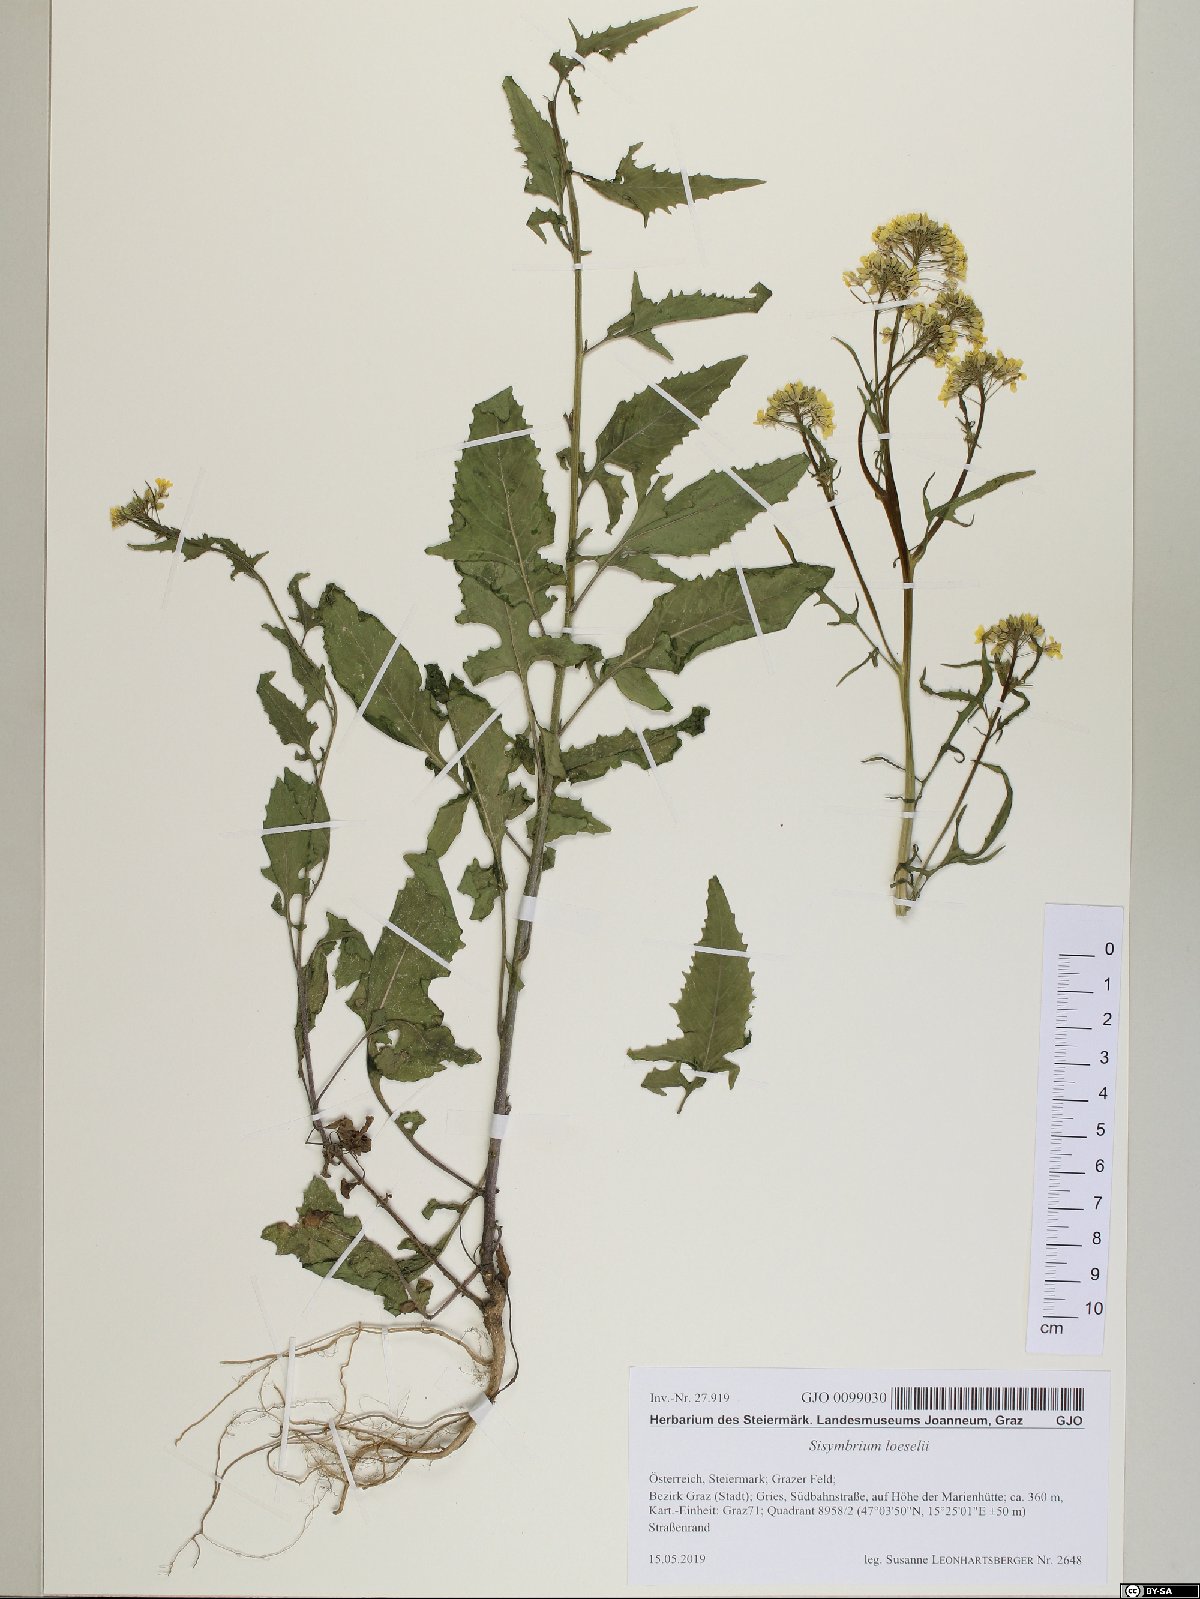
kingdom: Plantae
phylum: Tracheophyta
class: Magnoliopsida
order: Brassicales
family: Brassicaceae
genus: Sisymbrium
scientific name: Sisymbrium loeselii
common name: False london-rocket
